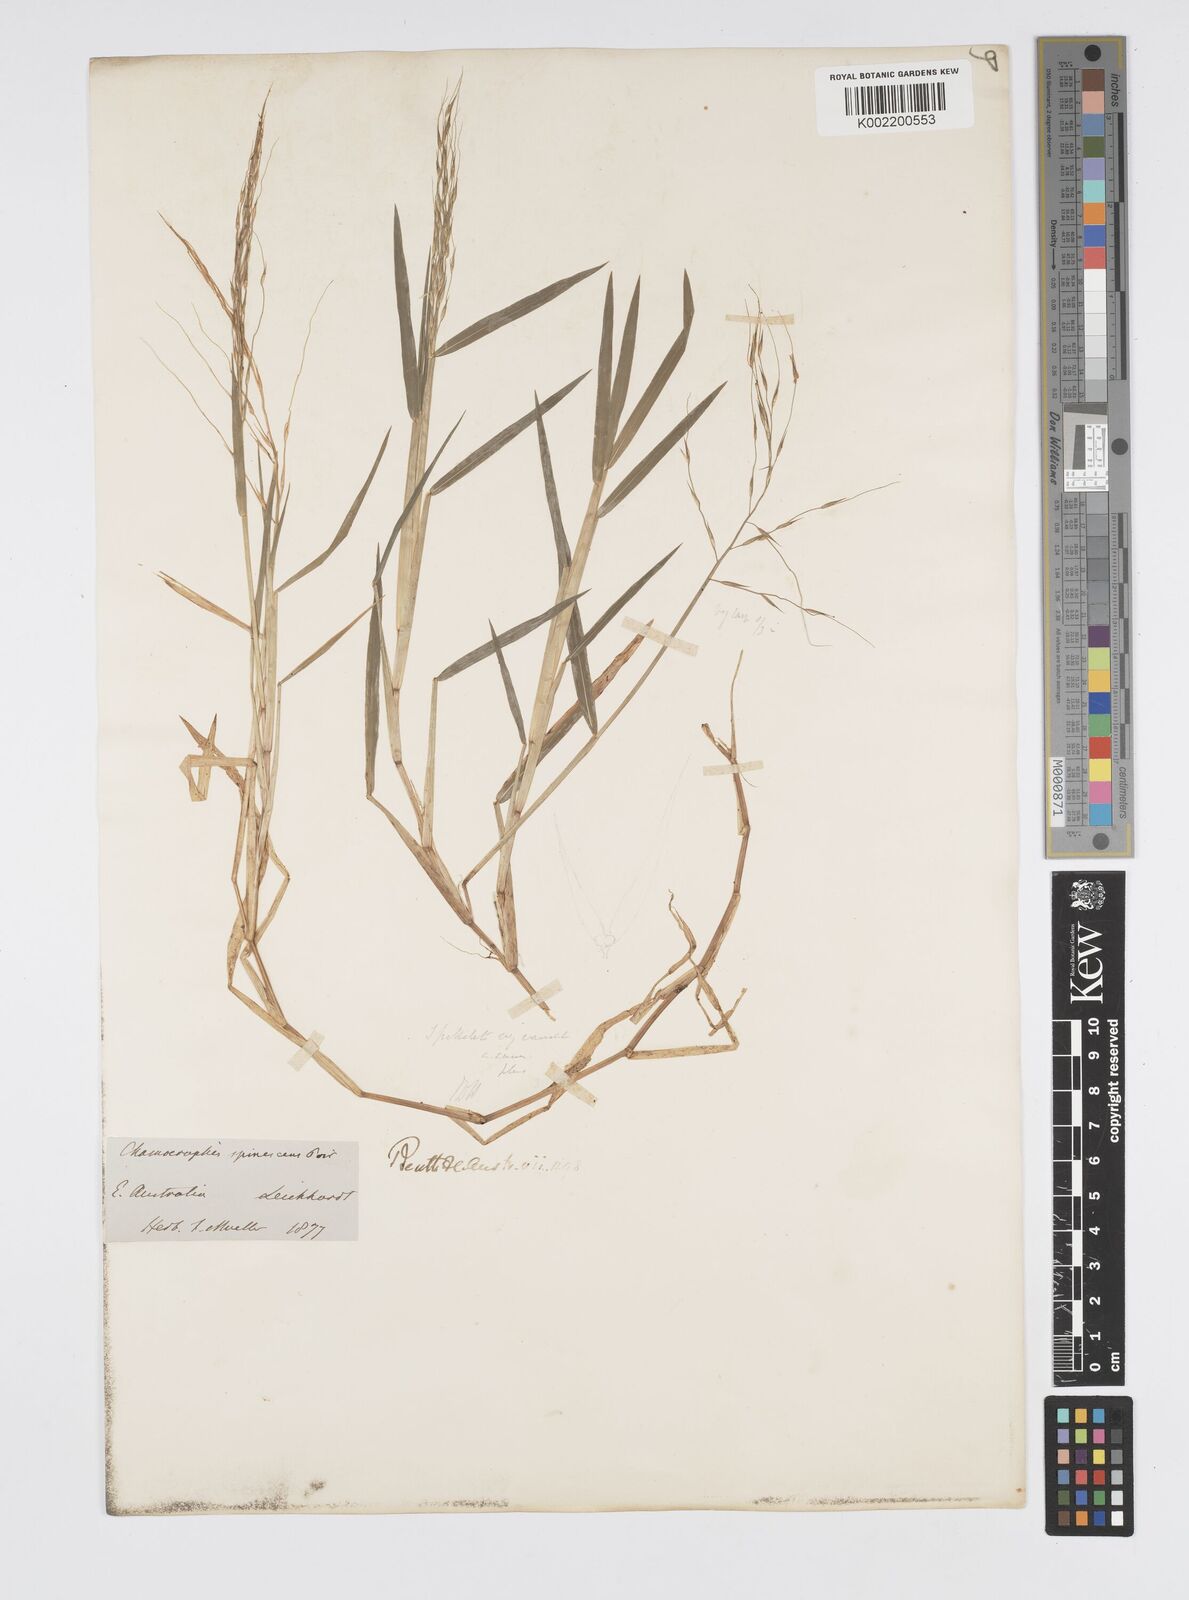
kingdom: Plantae
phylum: Tracheophyta
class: Liliopsida
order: Poales
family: Poaceae
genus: Pseudoraphis
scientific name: Pseudoraphis brunoniana
